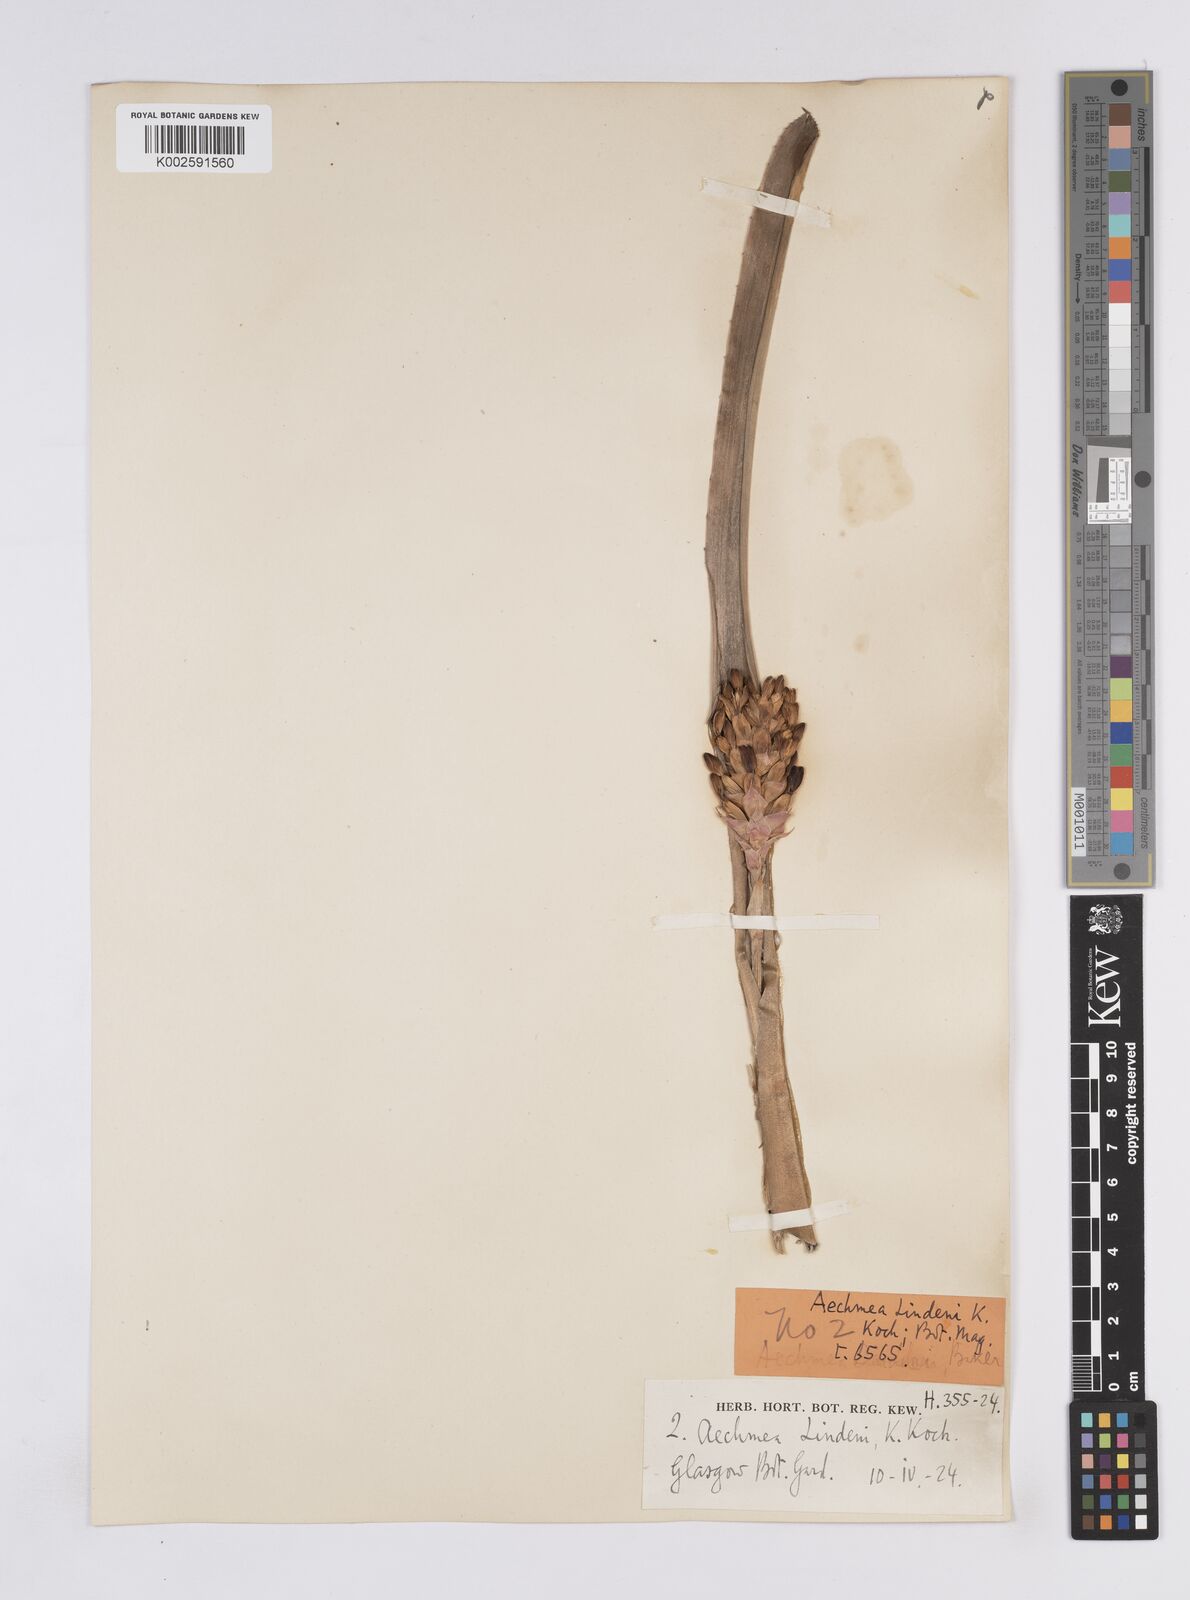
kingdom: Plantae
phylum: Tracheophyta
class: Liliopsida
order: Poales
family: Bromeliaceae
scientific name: Bromeliaceae
